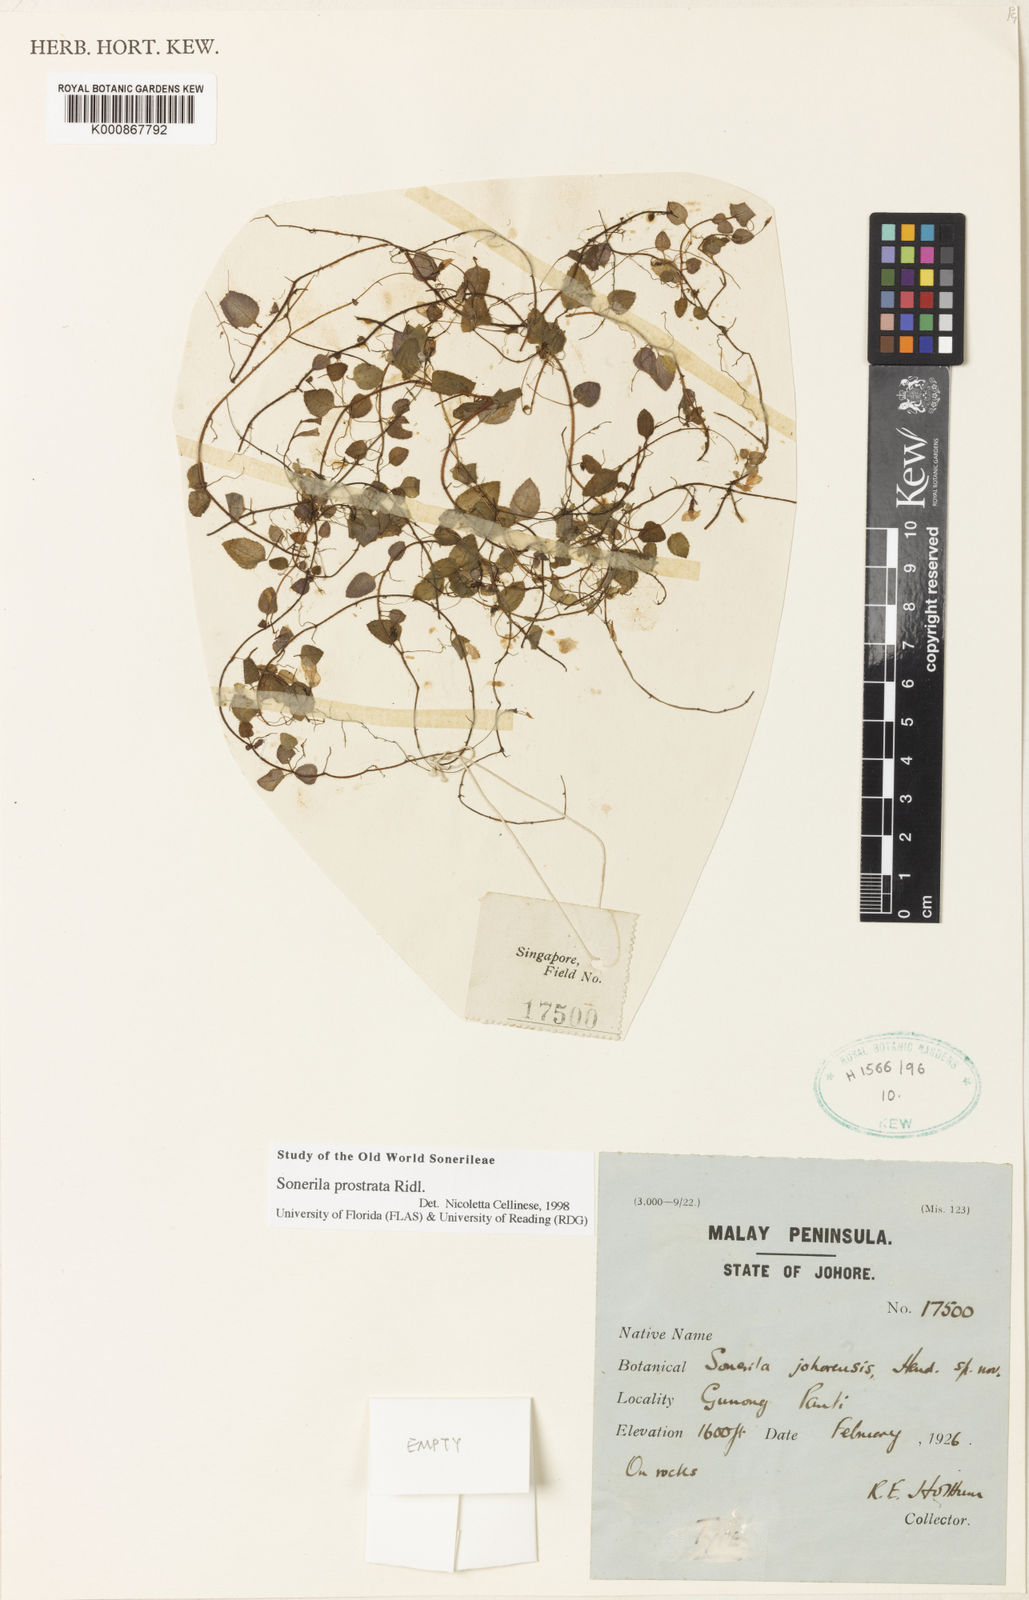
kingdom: Plantae
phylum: Tracheophyta
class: Magnoliopsida
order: Myrtales
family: Melastomataceae
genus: Sonerila
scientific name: Sonerila prostrata
